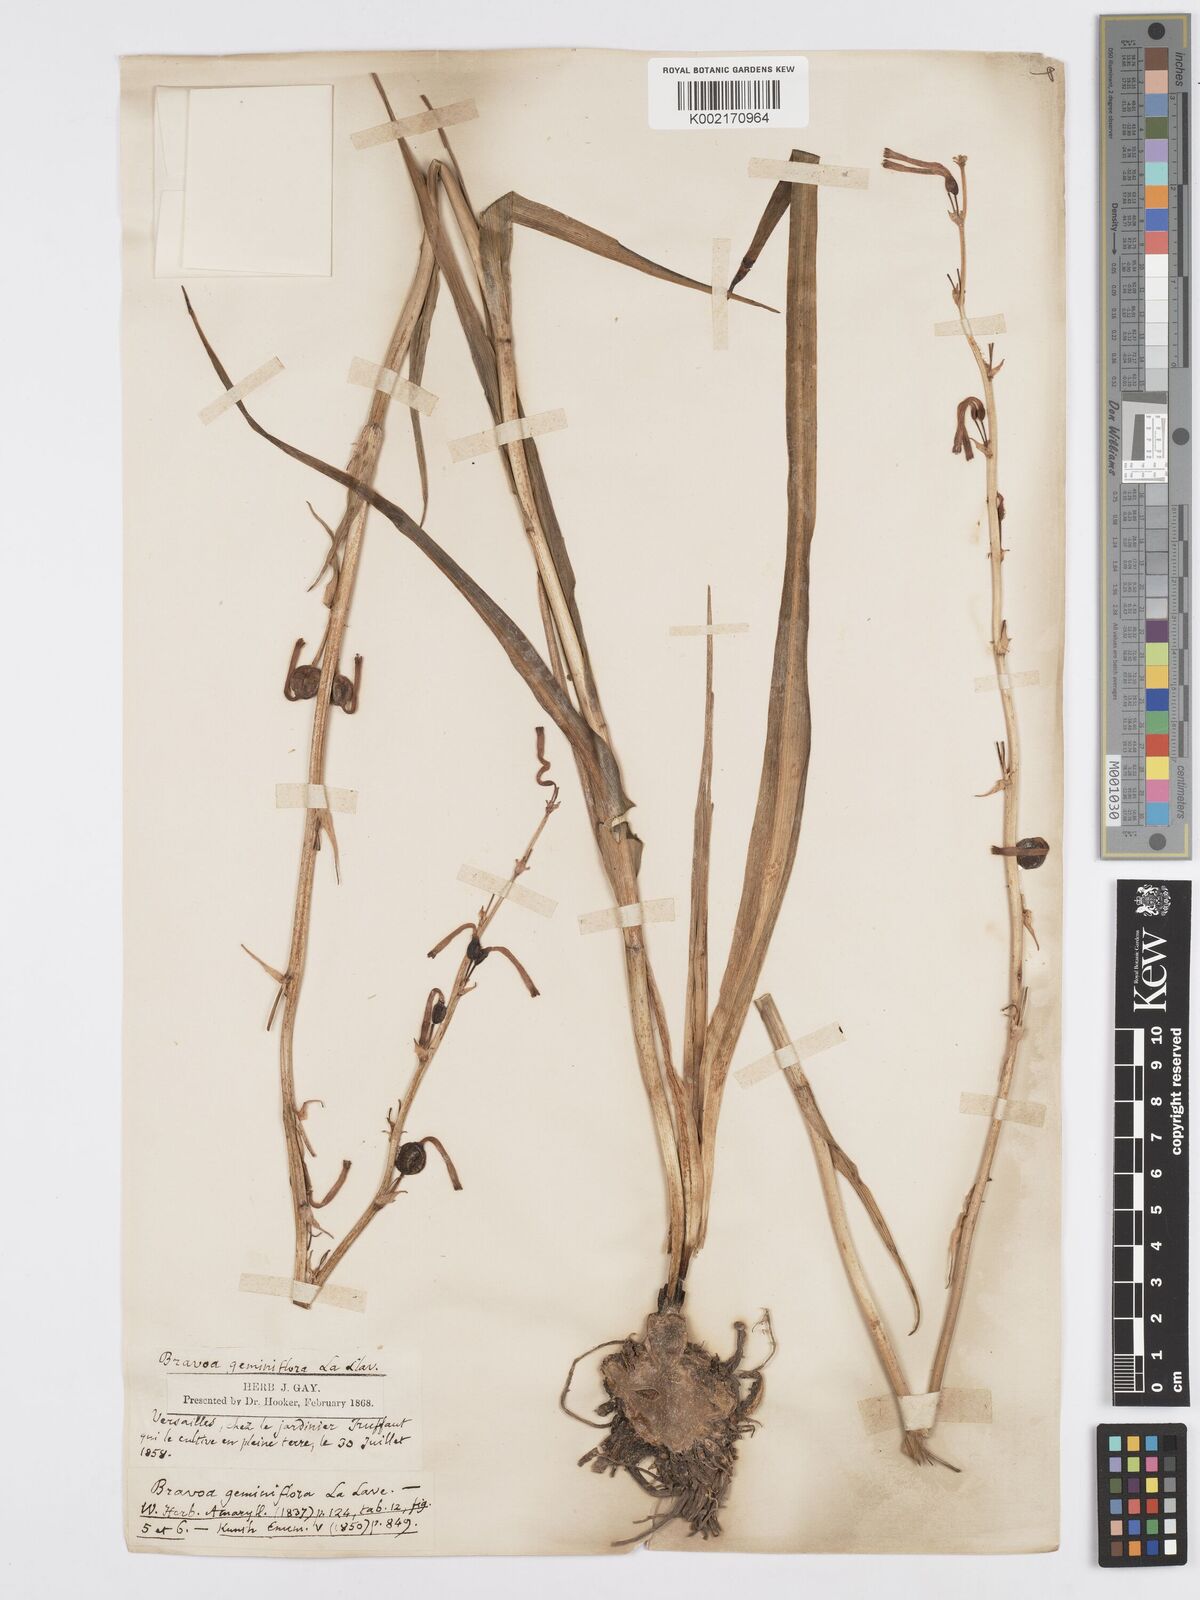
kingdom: Plantae
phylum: Tracheophyta
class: Liliopsida
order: Asparagales
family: Asparagaceae
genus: Agave
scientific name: Agave coetocapnia
